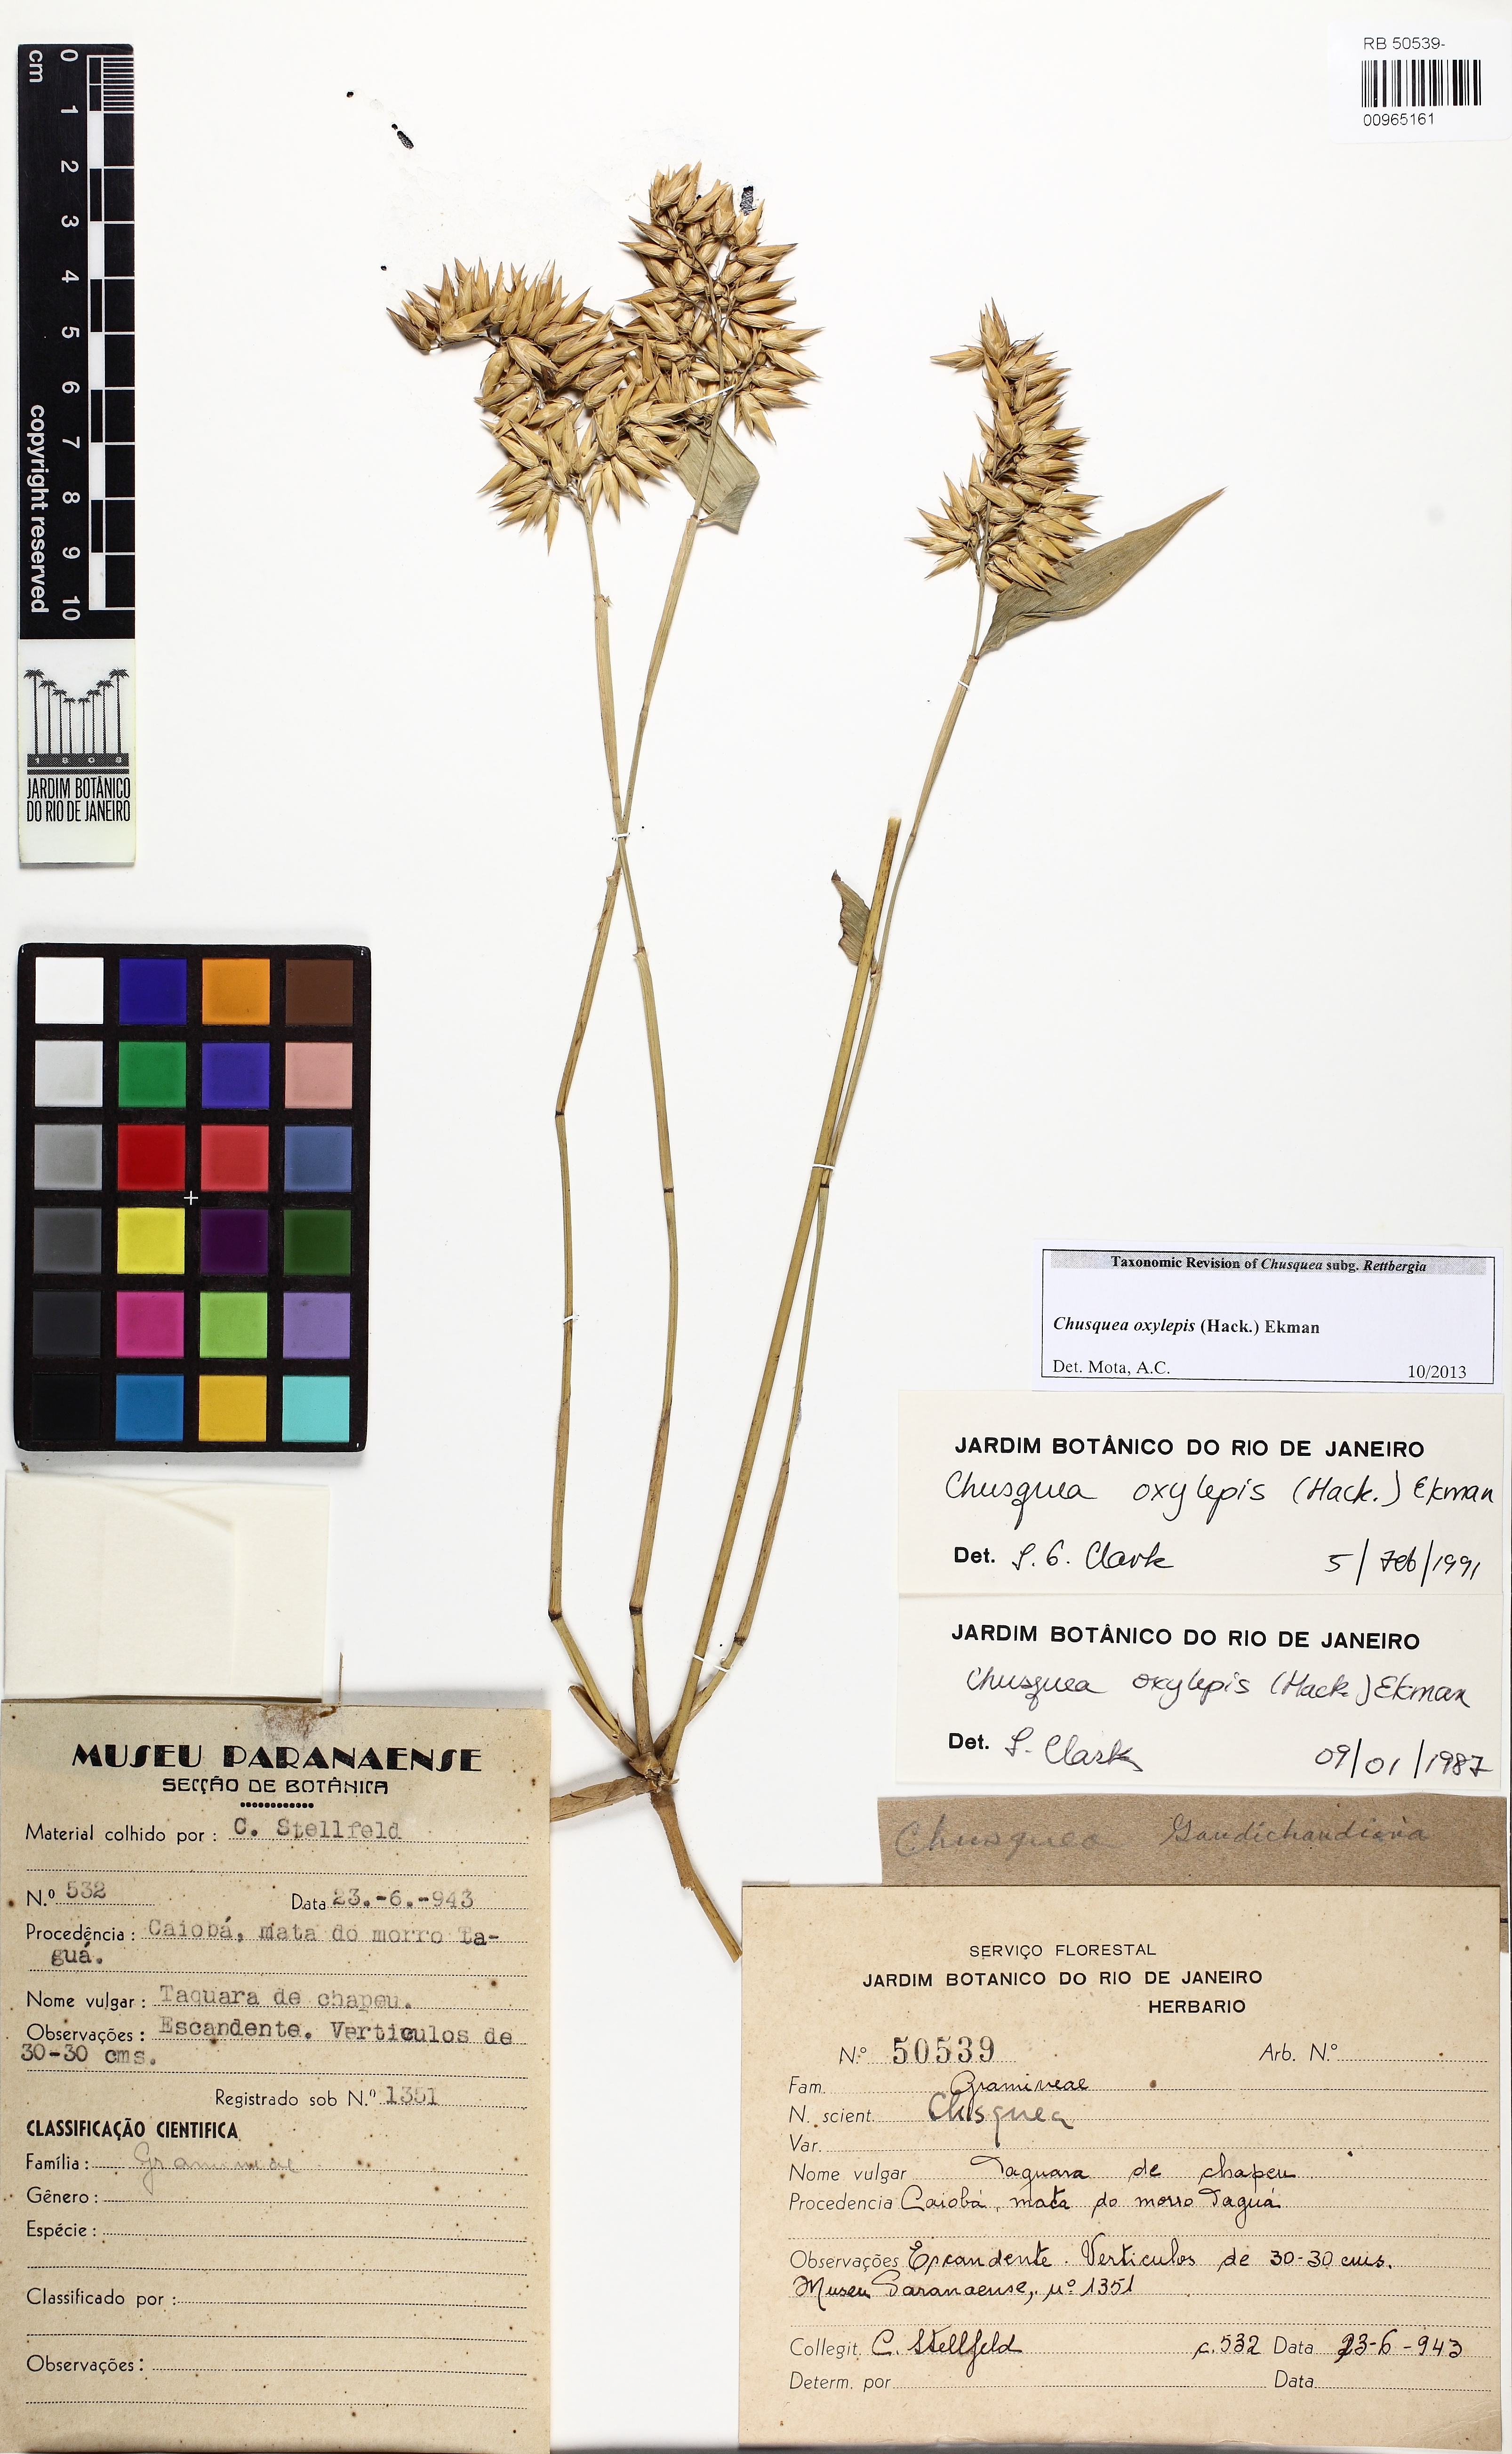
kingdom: Plantae
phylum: Tracheophyta
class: Liliopsida
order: Poales
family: Poaceae
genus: Chusquea
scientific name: Chusquea oxylepis
